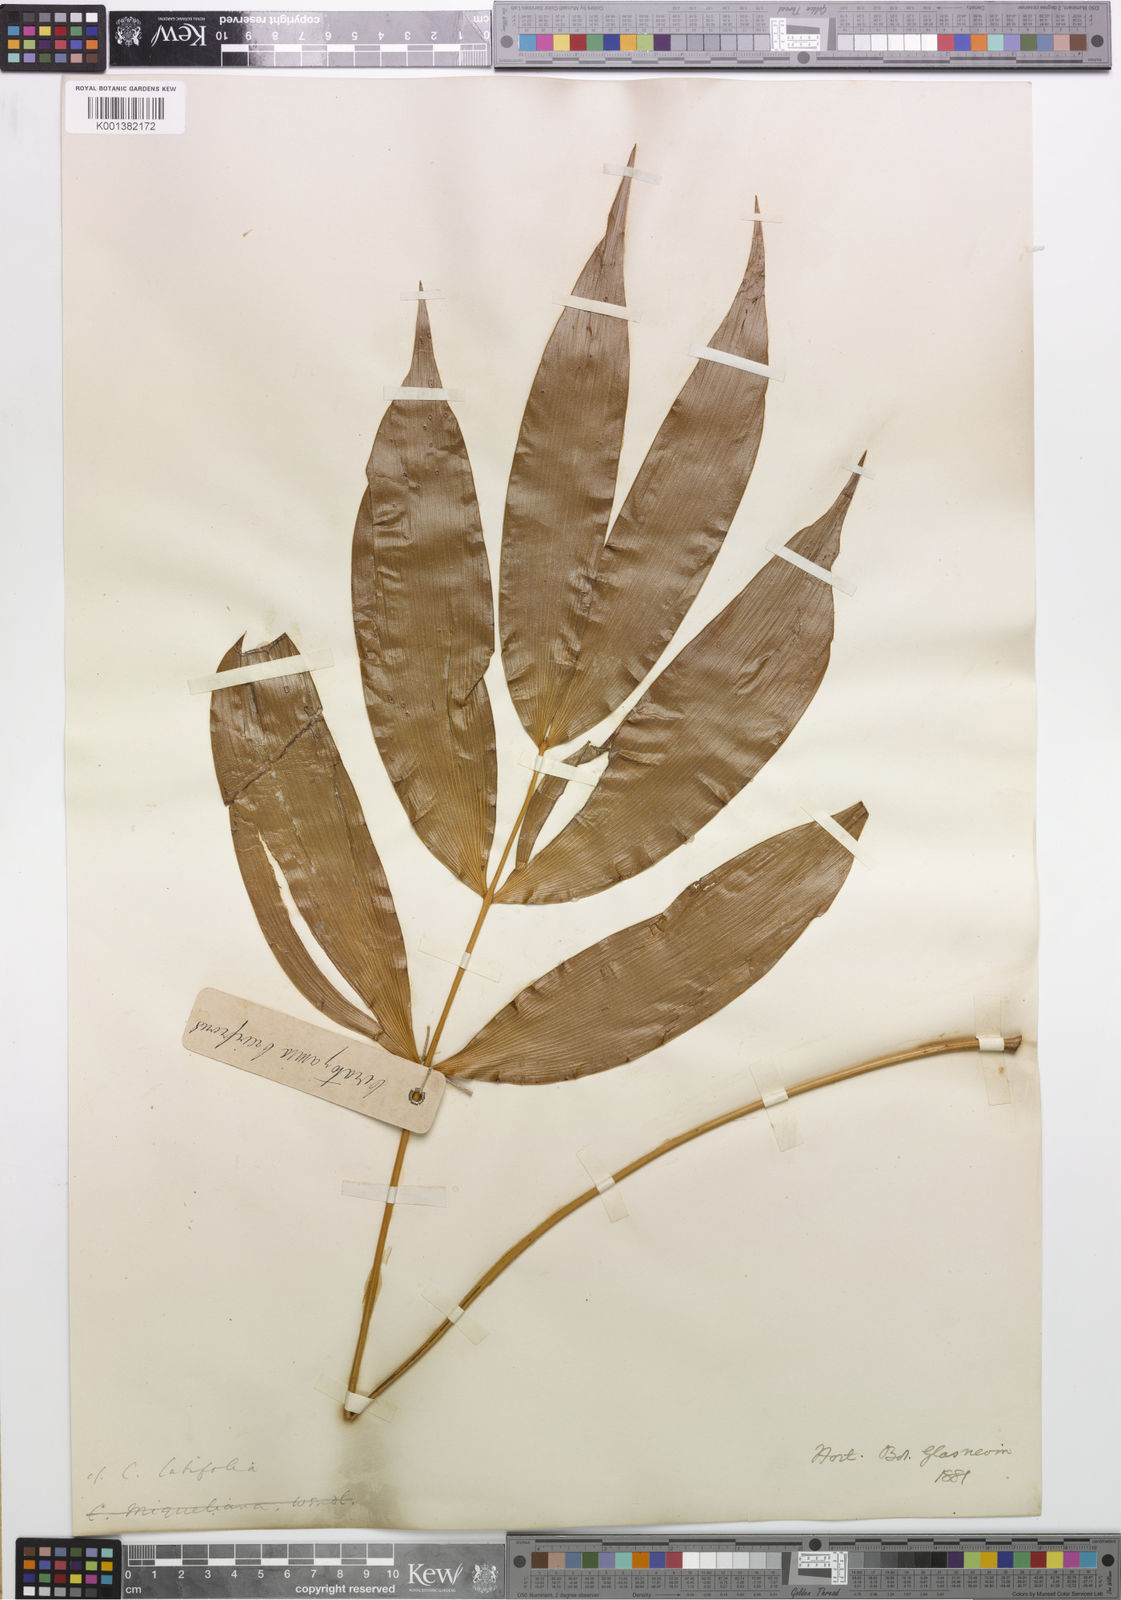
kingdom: Plantae
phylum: Tracheophyta
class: Cycadopsida
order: Cycadales
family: Zamiaceae
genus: Ceratozamia
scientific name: Ceratozamia latifolia
